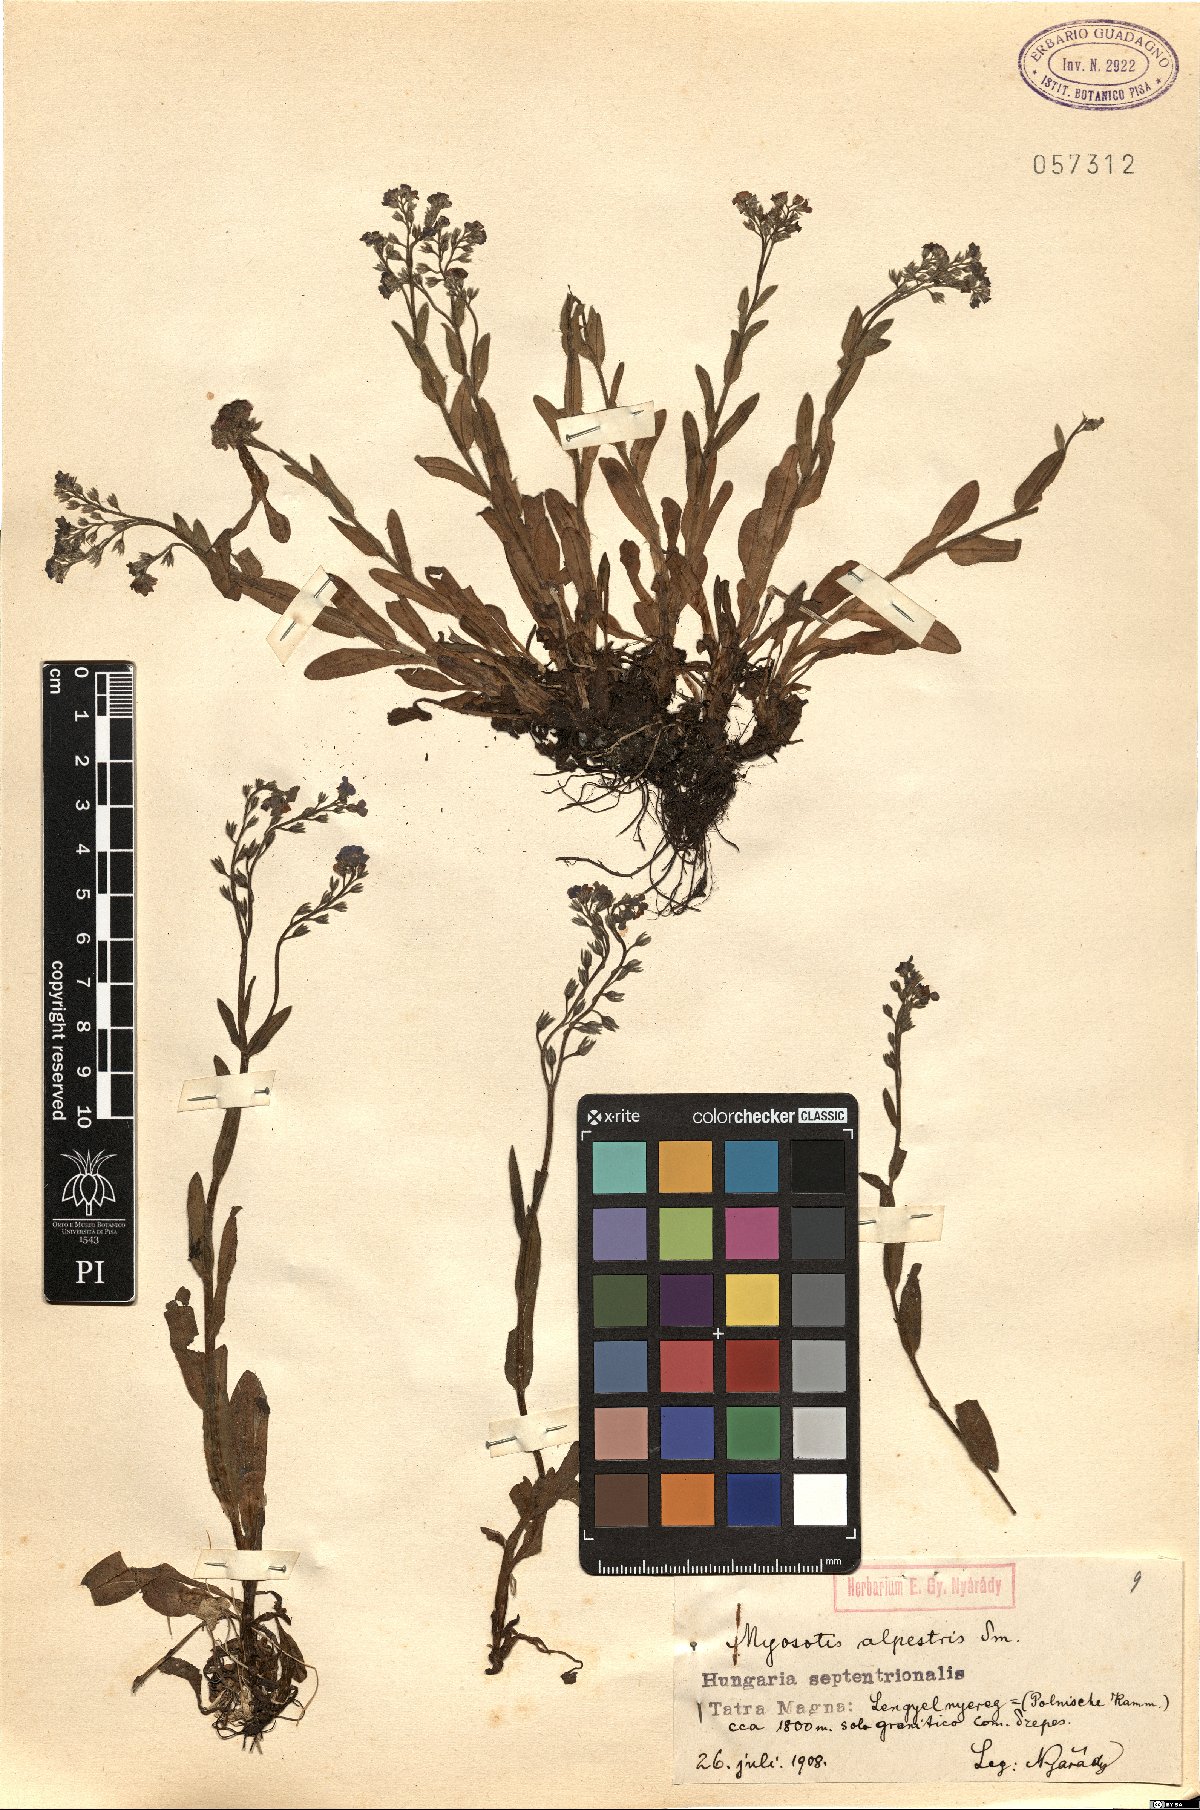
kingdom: Plantae
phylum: Tracheophyta
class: Magnoliopsida
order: Boraginales
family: Boraginaceae
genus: Myosotis
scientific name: Myosotis alpestris
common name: Alpine forget-me-not
